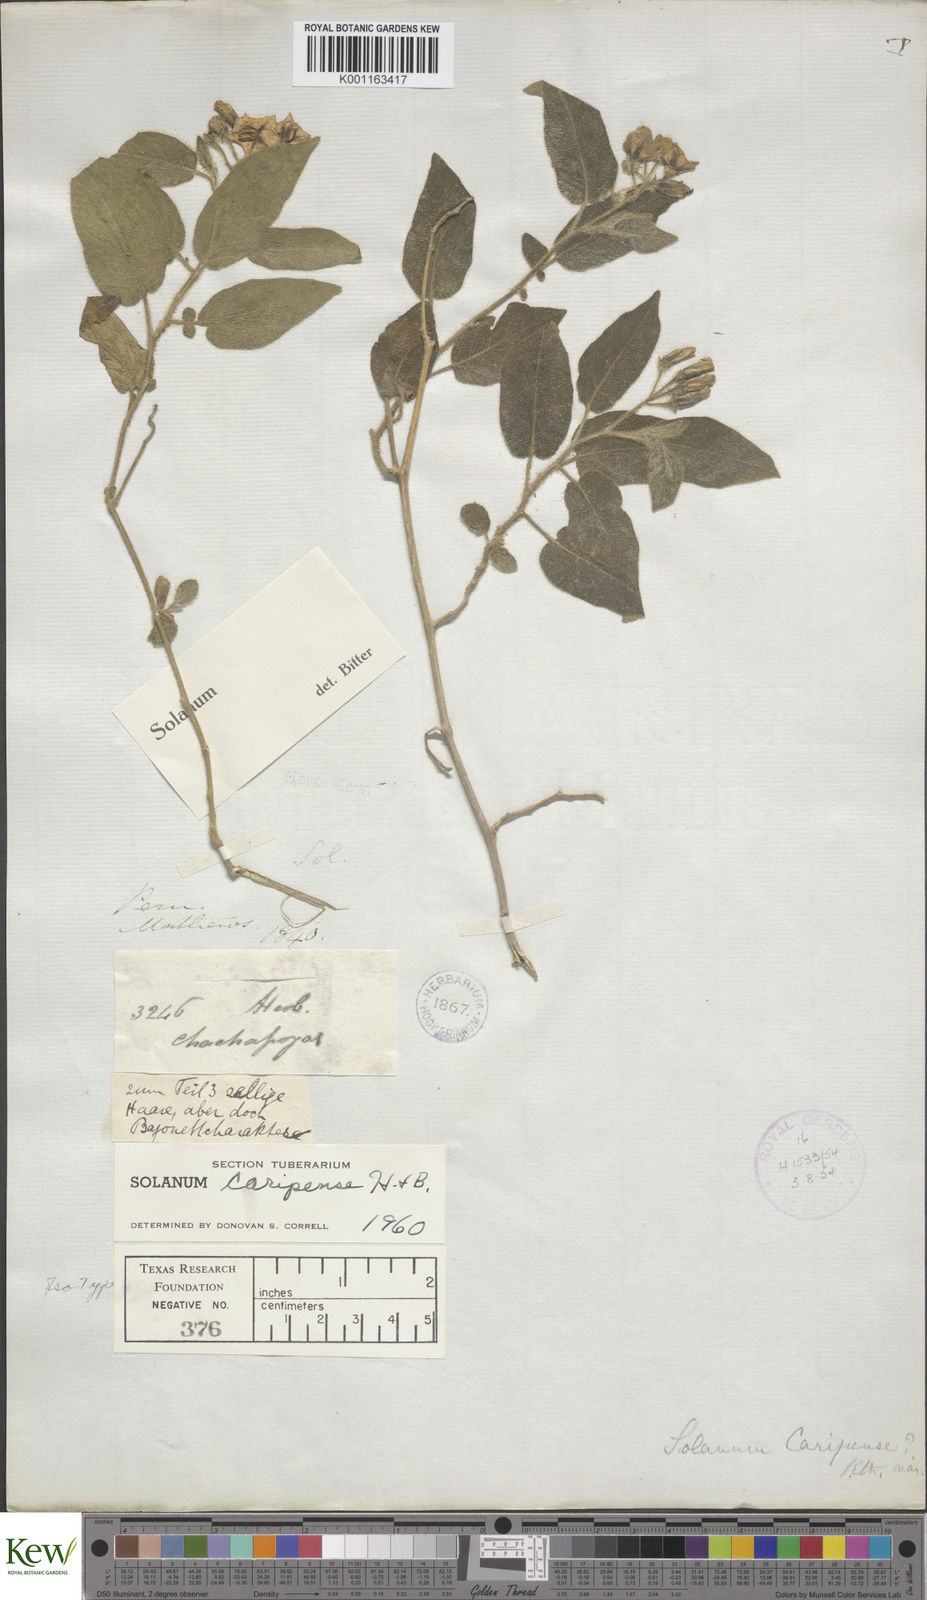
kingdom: Plantae
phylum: Tracheophyta
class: Magnoliopsida
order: Solanales
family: Solanaceae
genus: Solanum
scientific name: Solanum caripense
